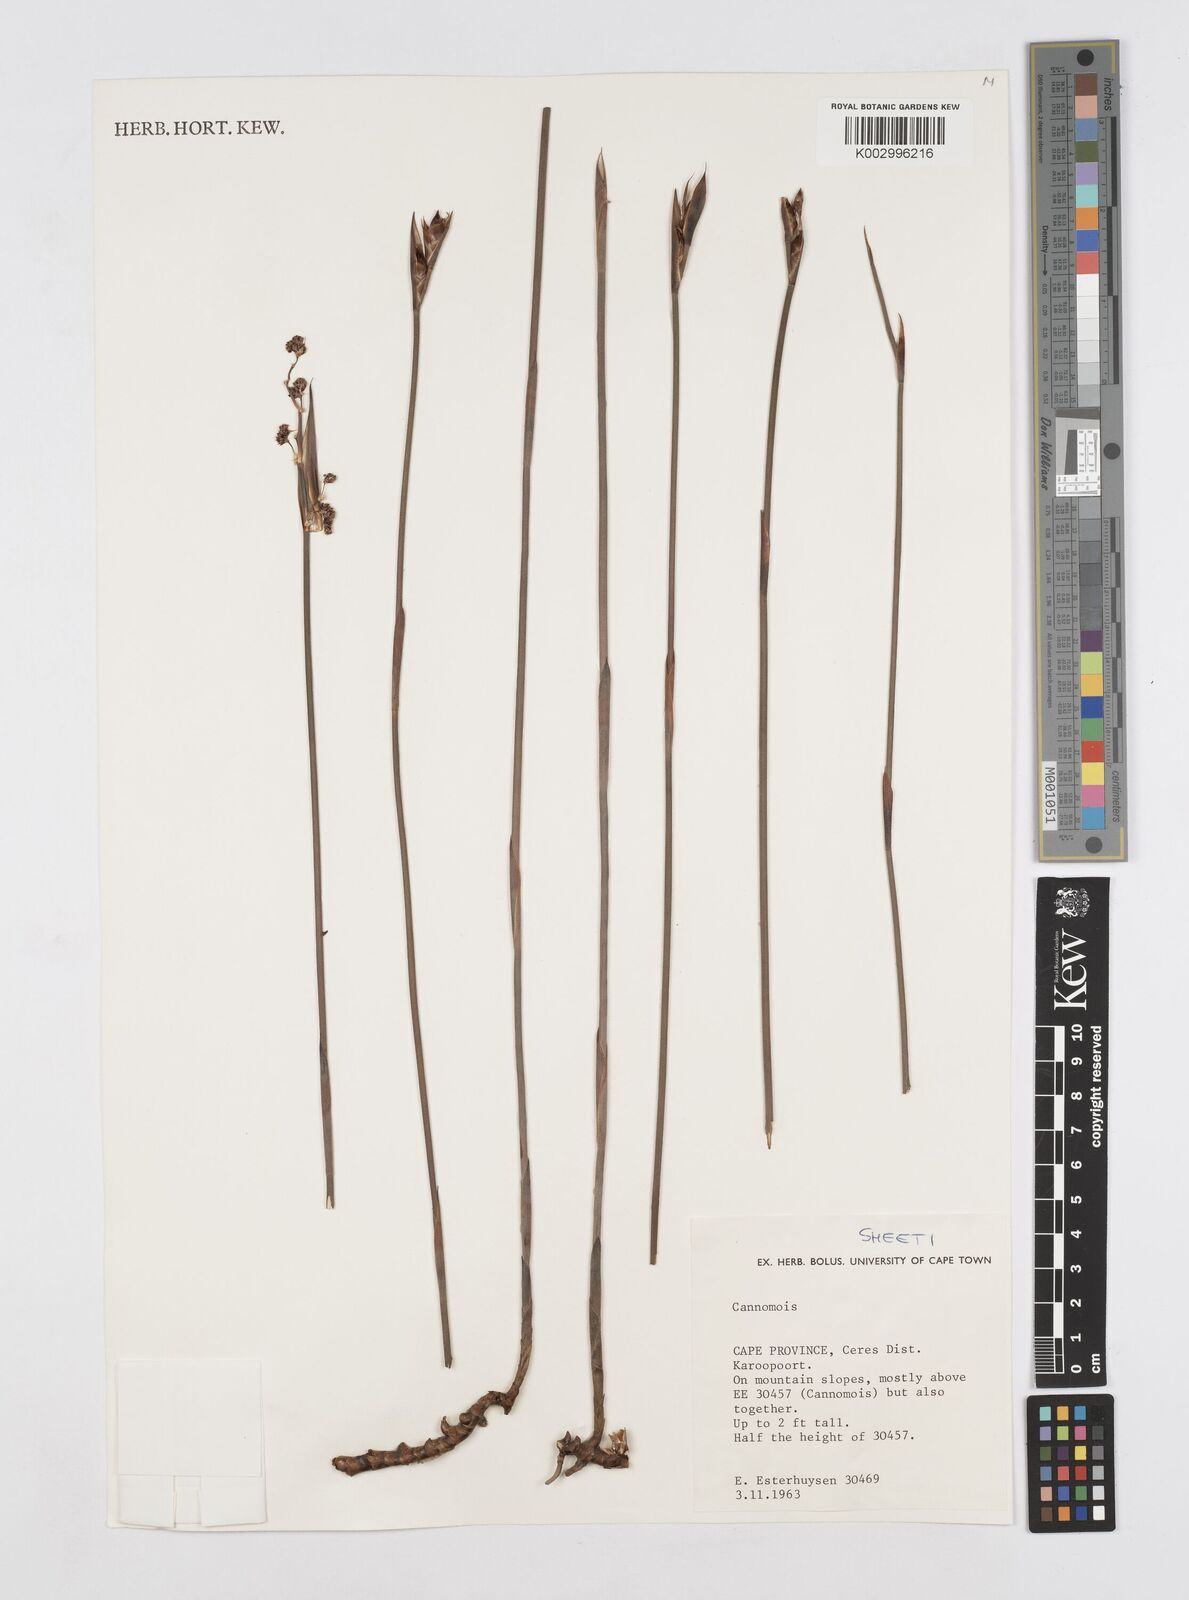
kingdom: Plantae
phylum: Tracheophyta
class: Liliopsida
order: Poales
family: Restionaceae
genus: Cannomois
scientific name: Cannomois taylorii
